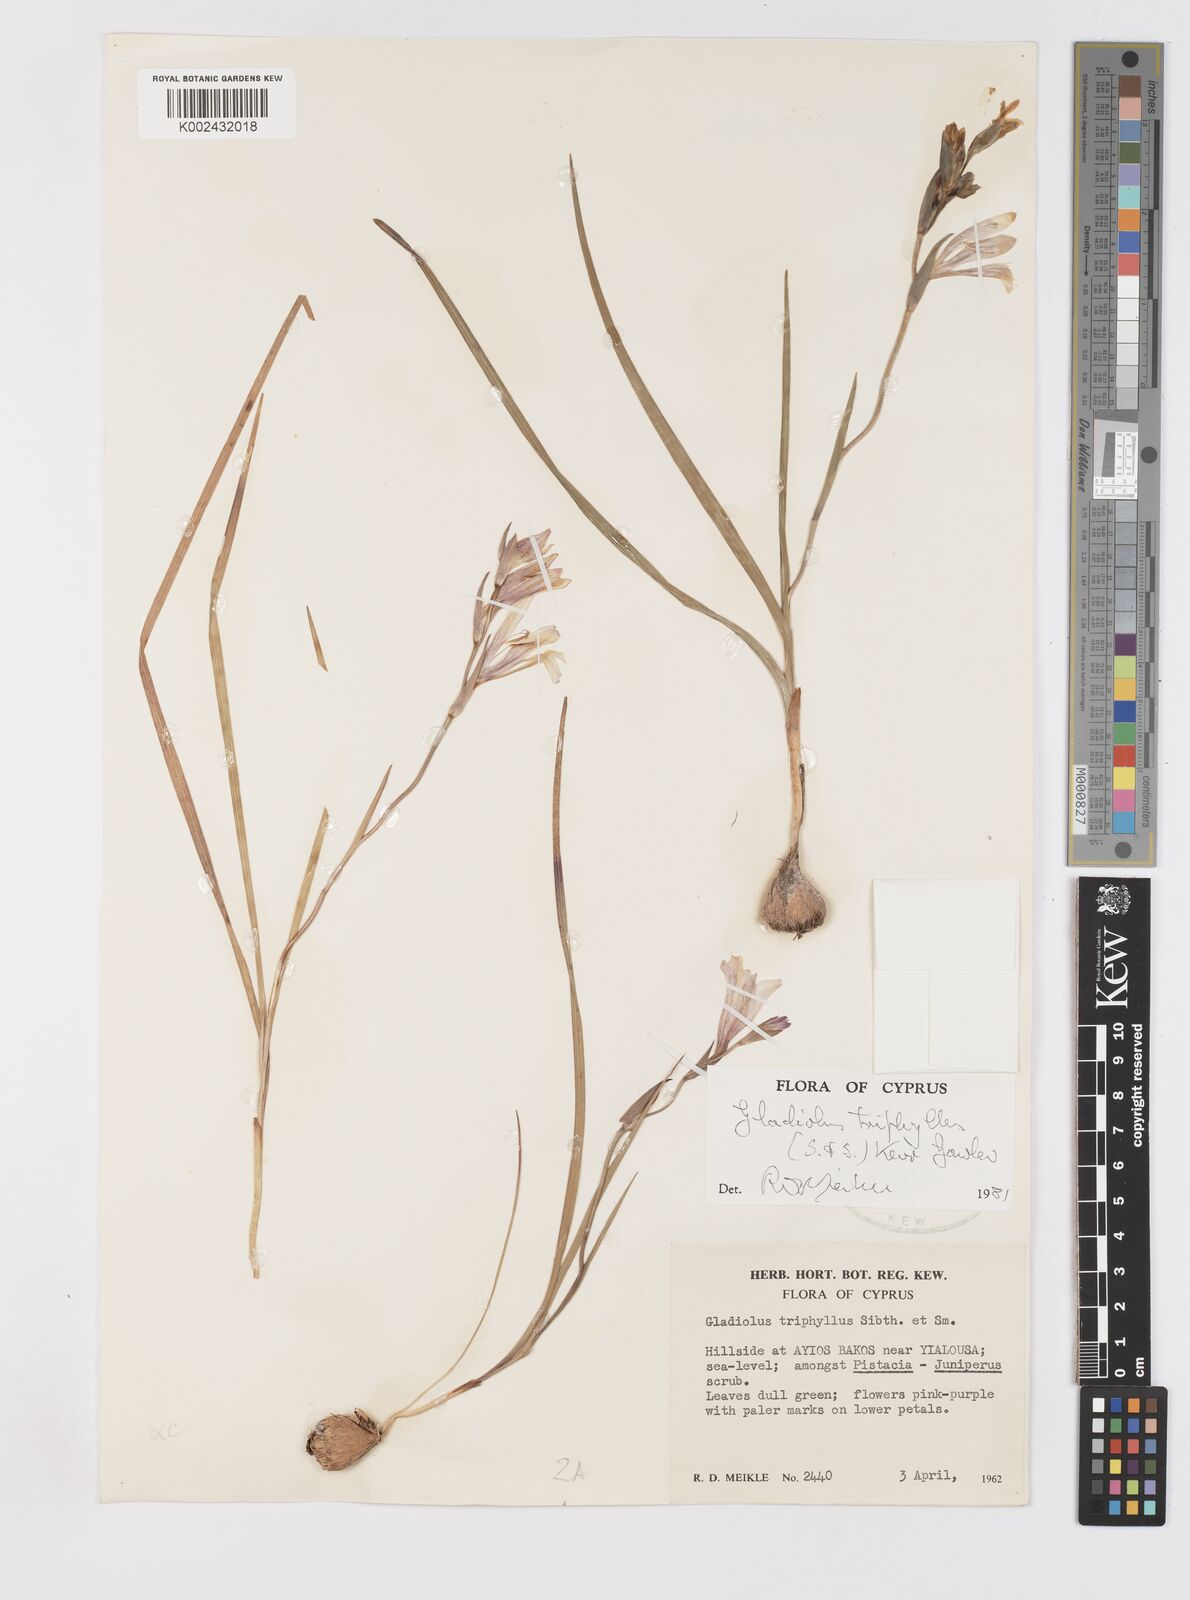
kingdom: Plantae
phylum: Tracheophyta
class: Liliopsida
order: Asparagales
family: Iridaceae
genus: Gladiolus
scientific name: Gladiolus triphyllus
